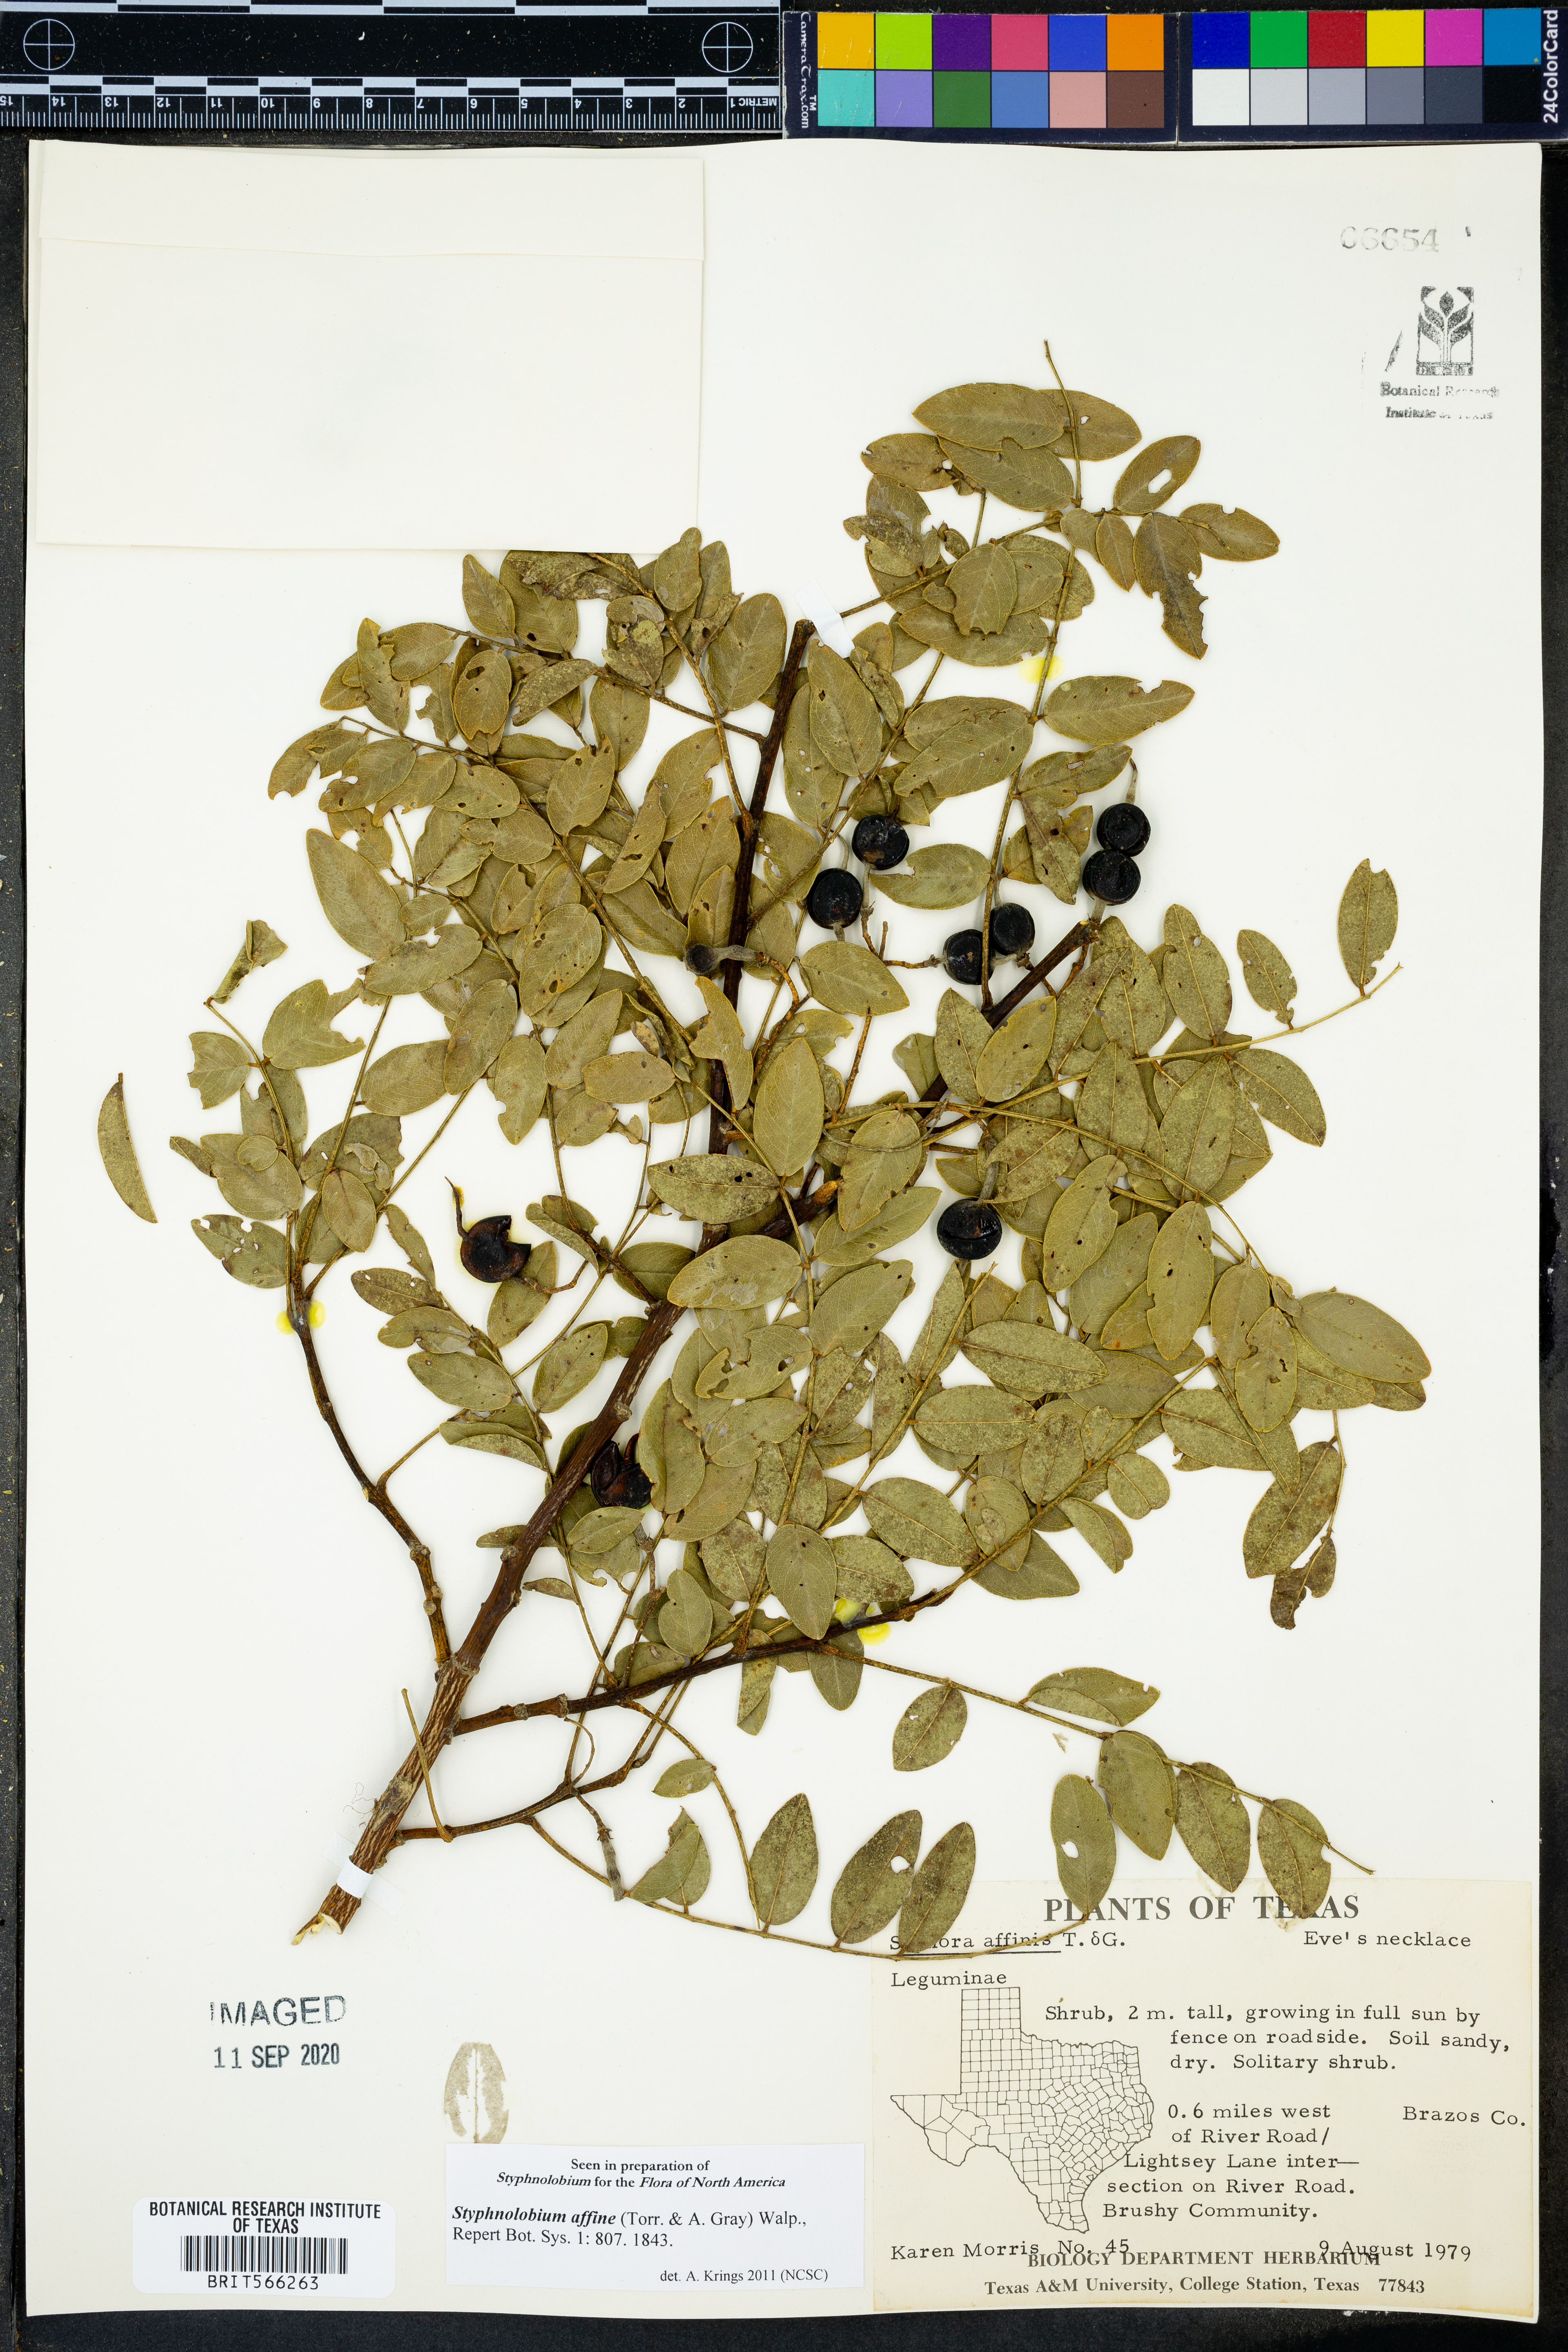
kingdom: Plantae
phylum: Tracheophyta
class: Magnoliopsida
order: Fabales
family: Fabaceae
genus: Styphnolobium
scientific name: Styphnolobium affine
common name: Texas sophora
